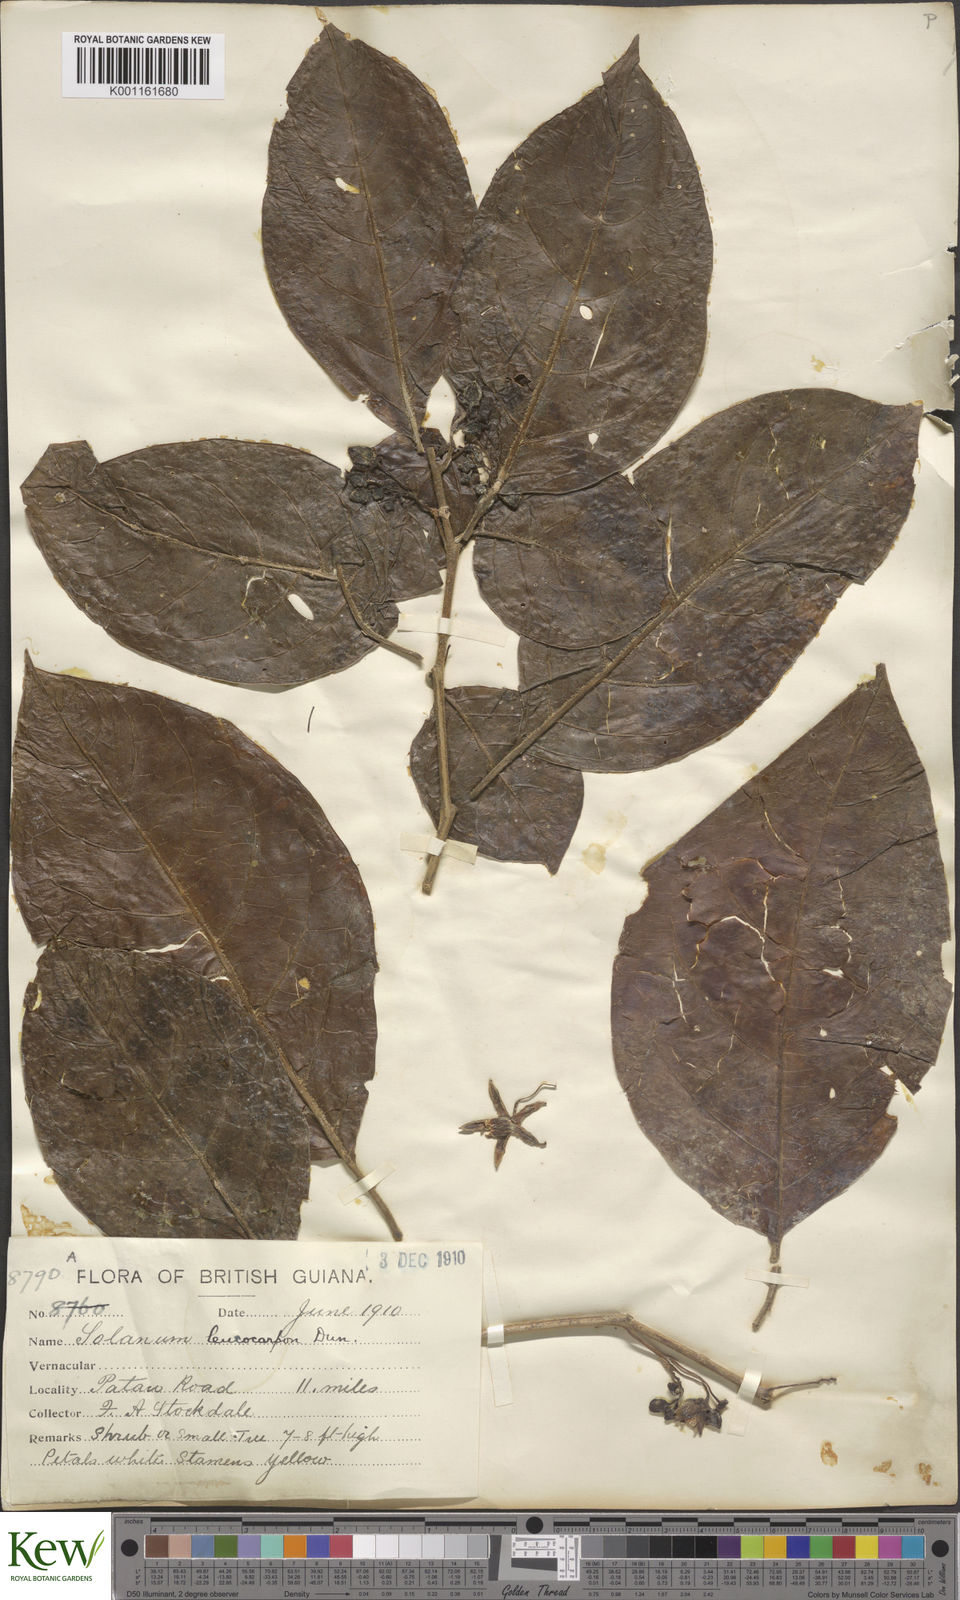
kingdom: Plantae
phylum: Tracheophyta
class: Magnoliopsida
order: Solanales
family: Solanaceae
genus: Solanum
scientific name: Solanum leucocarpon
